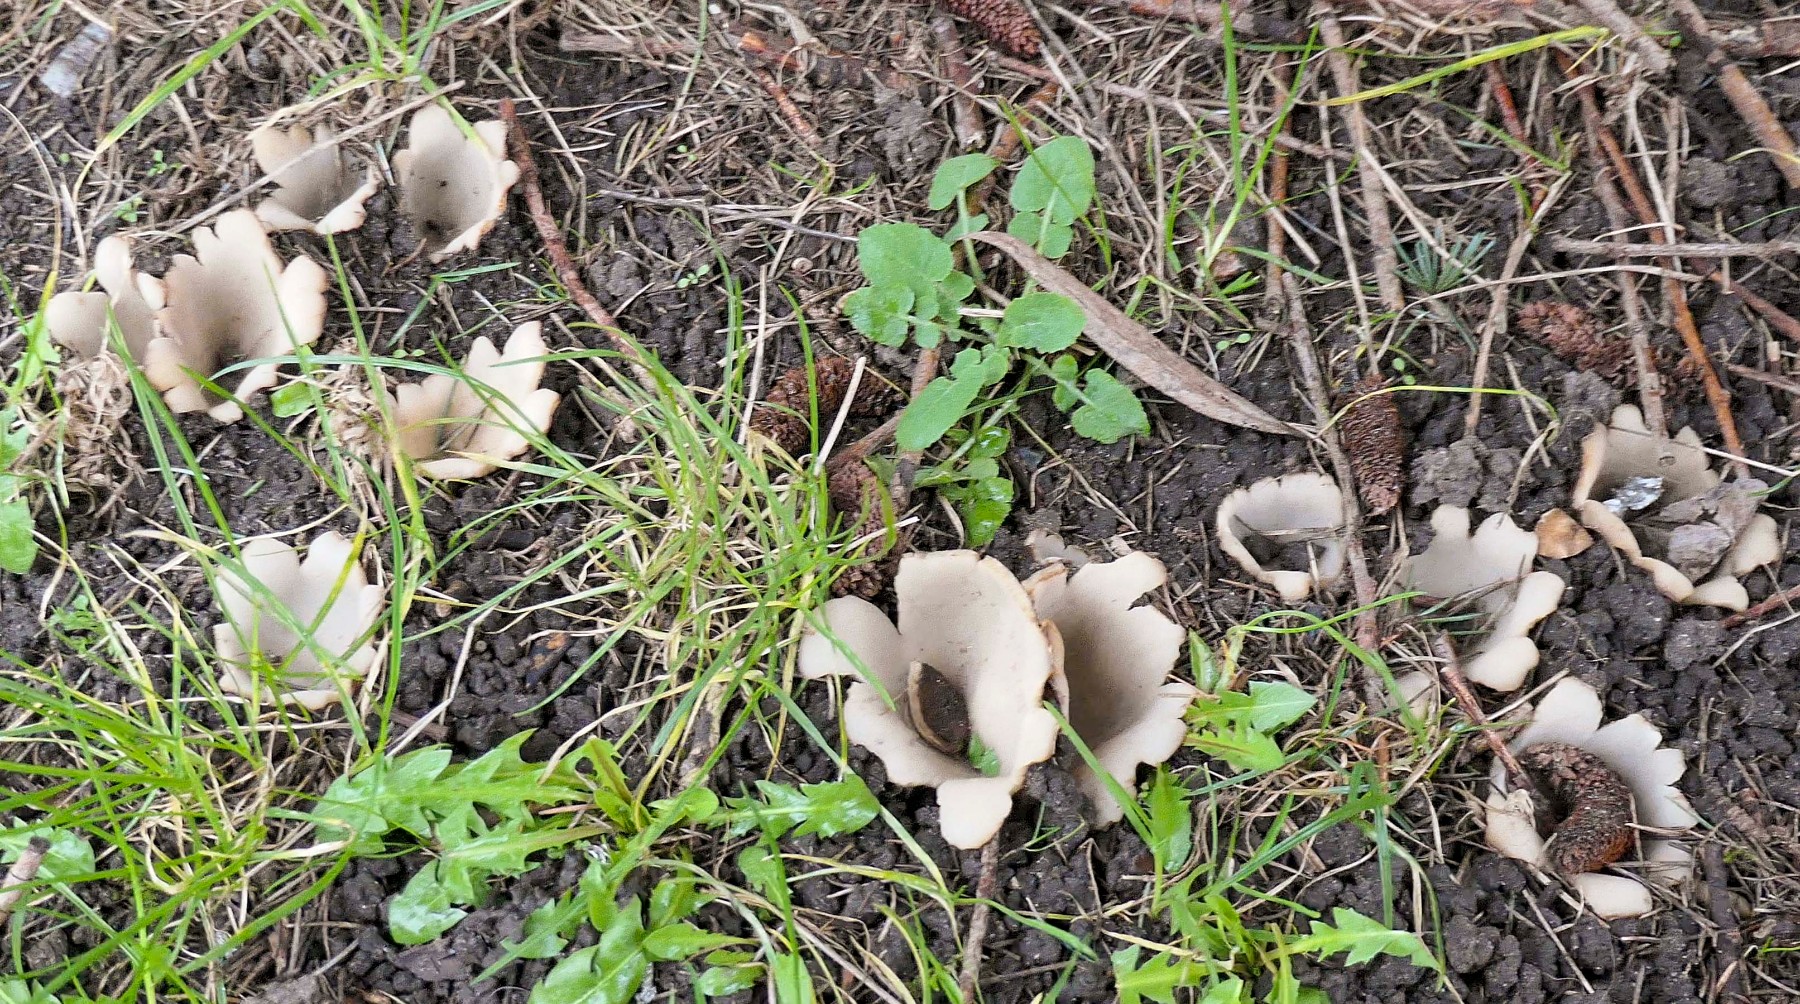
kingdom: Fungi
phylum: Ascomycota
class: Pezizomycetes
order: Pezizales
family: Pyronemataceae
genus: Geopora
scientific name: Geopora sumneriana
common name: vår-jordbæger
